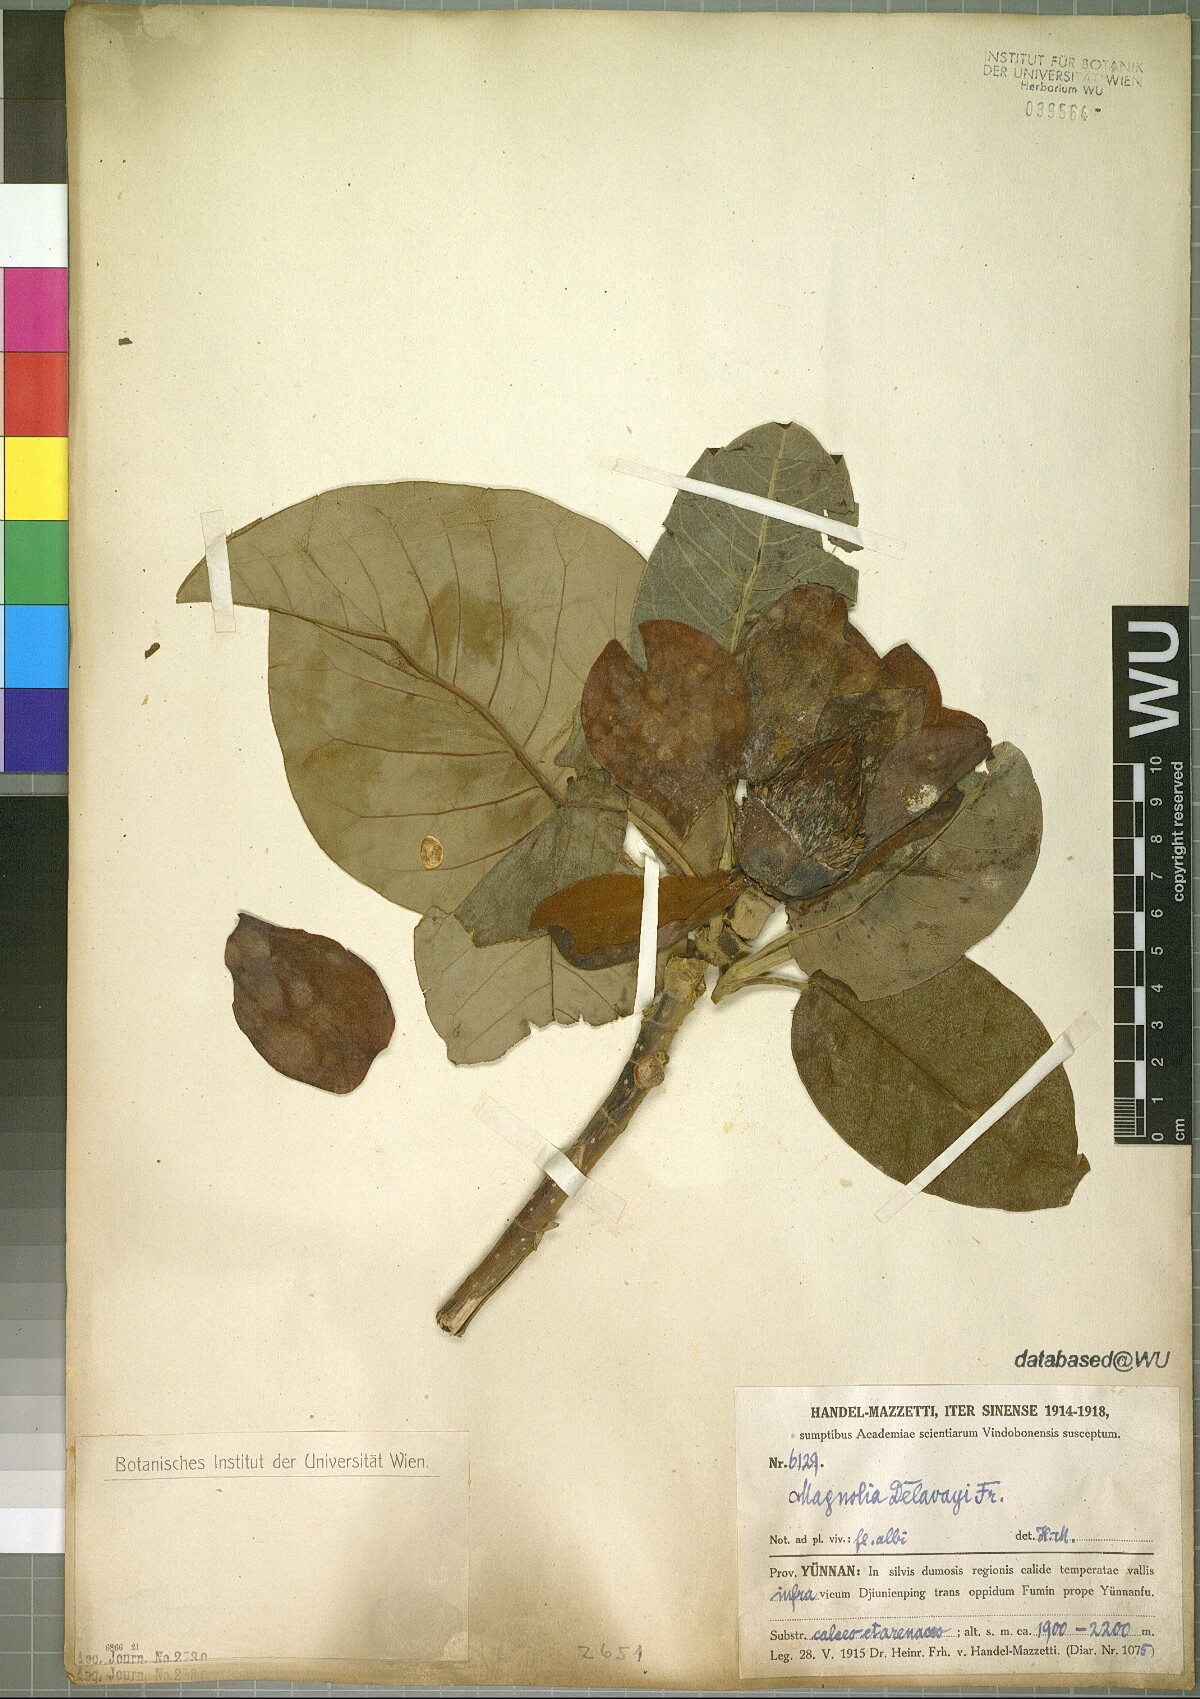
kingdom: Plantae
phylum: Tracheophyta
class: Magnoliopsida
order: Magnoliales
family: Magnoliaceae
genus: Magnolia
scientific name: Magnolia delavayi
